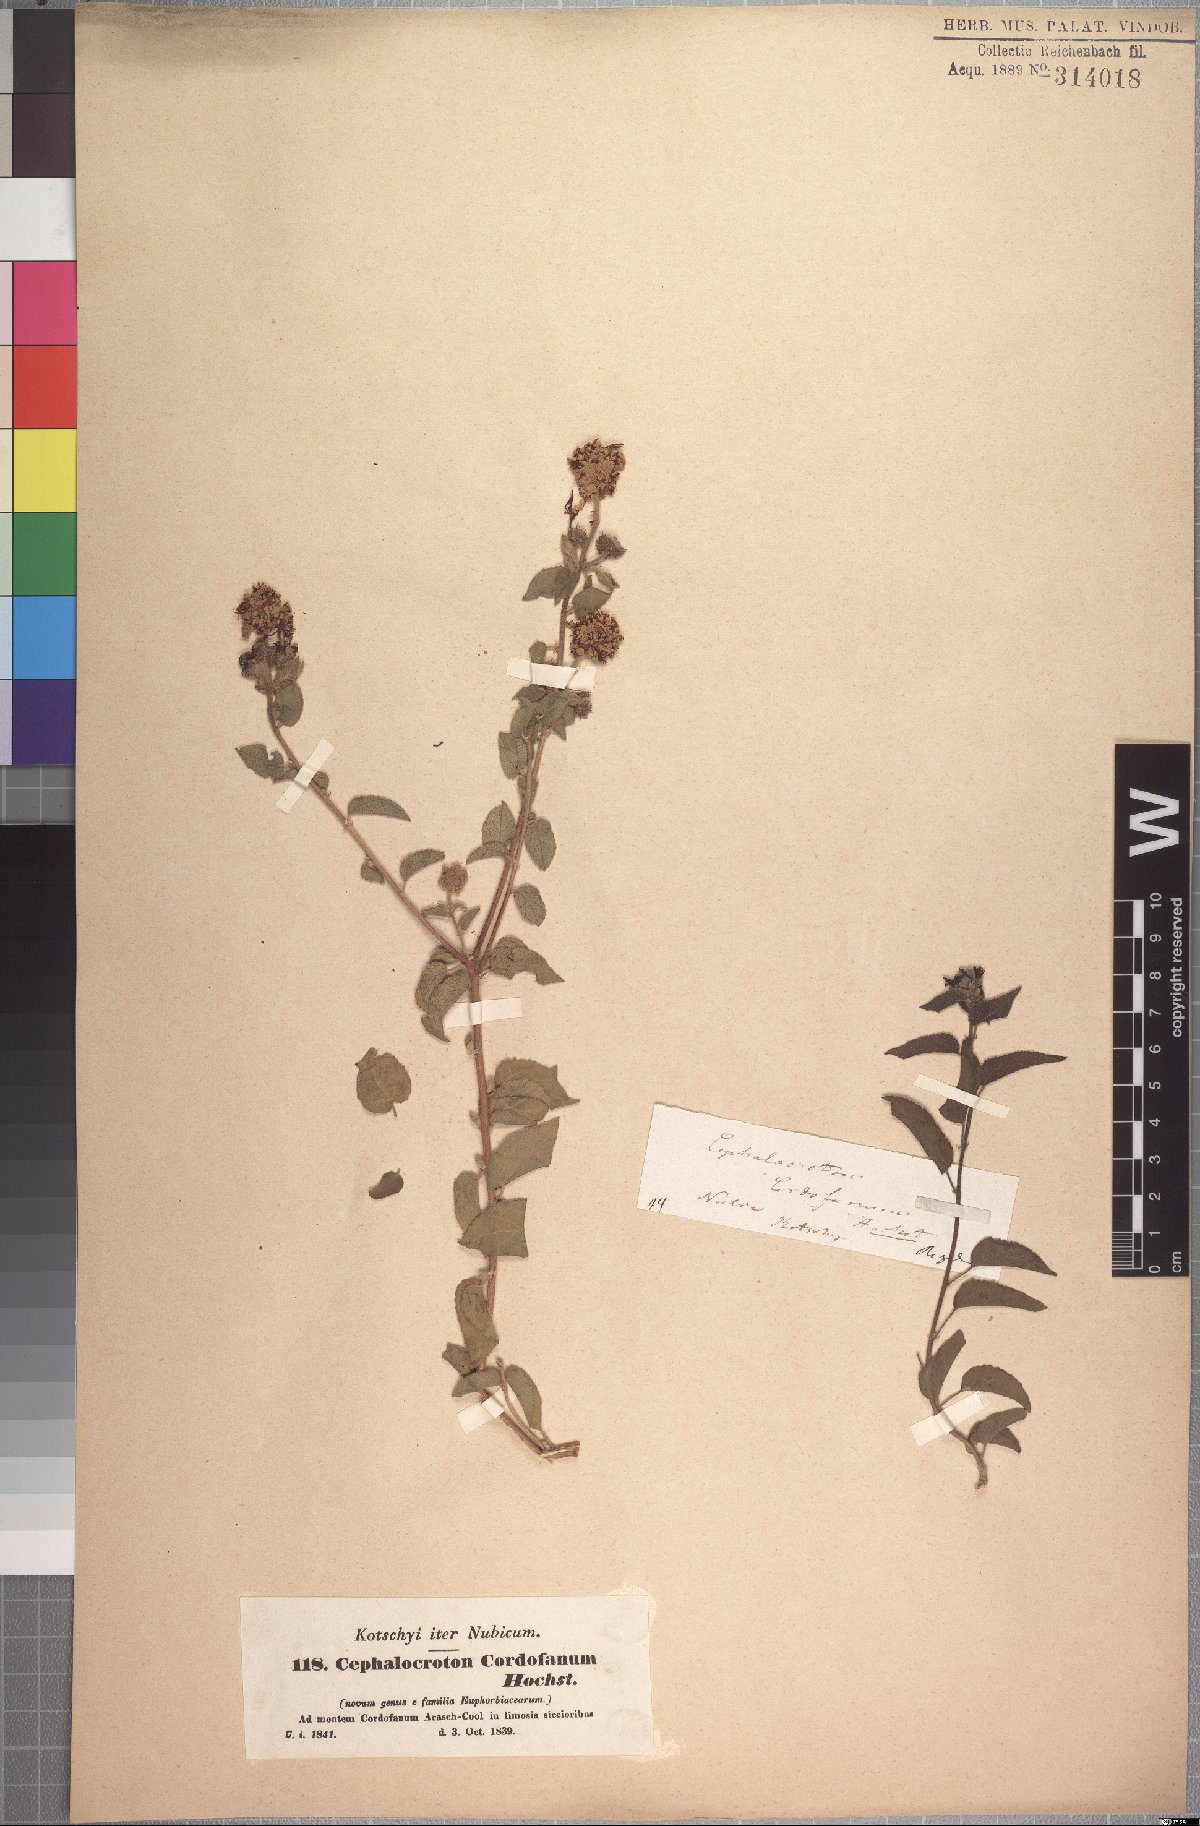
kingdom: Plantae
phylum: Tracheophyta
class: Magnoliopsida
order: Malpighiales
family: Euphorbiaceae
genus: Cephalocroton
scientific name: Cephalocroton cordofanus
